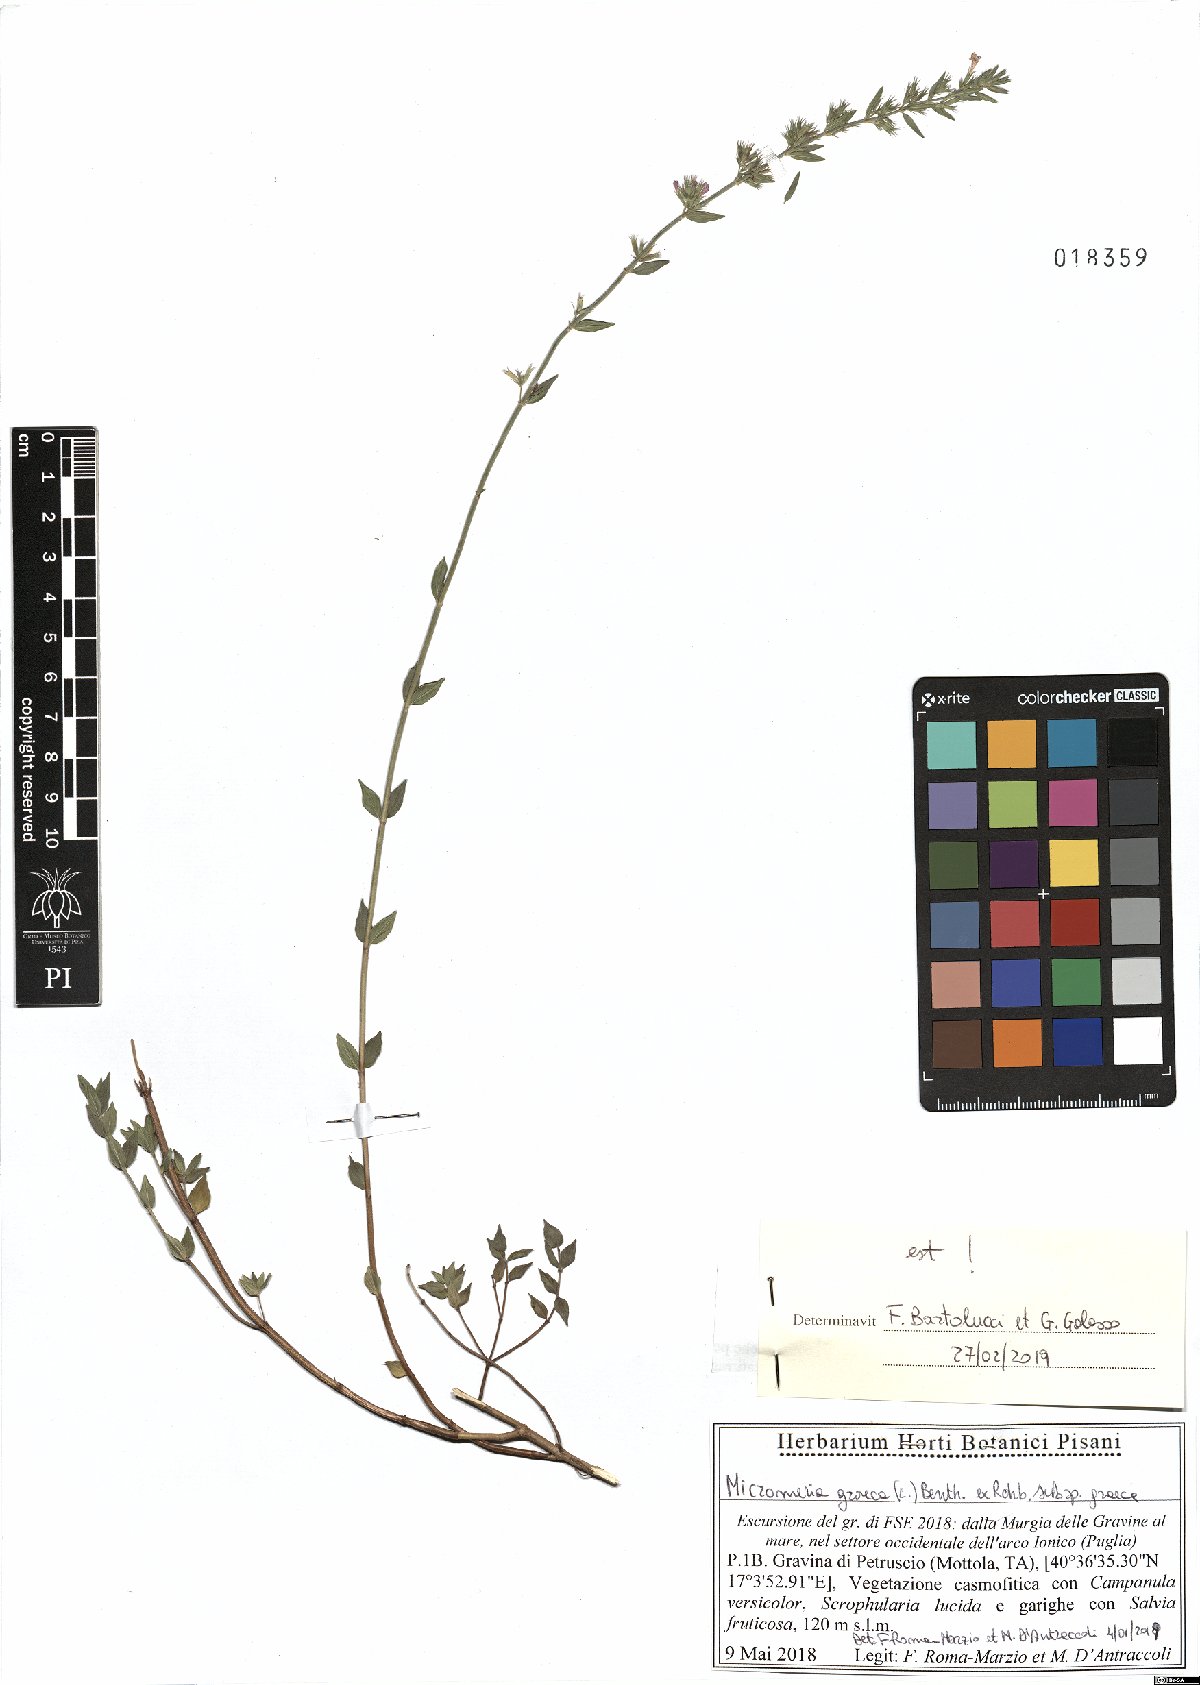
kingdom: Plantae
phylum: Tracheophyta
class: Magnoliopsida
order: Lamiales
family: Lamiaceae
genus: Micromeria
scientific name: Micromeria graeca
